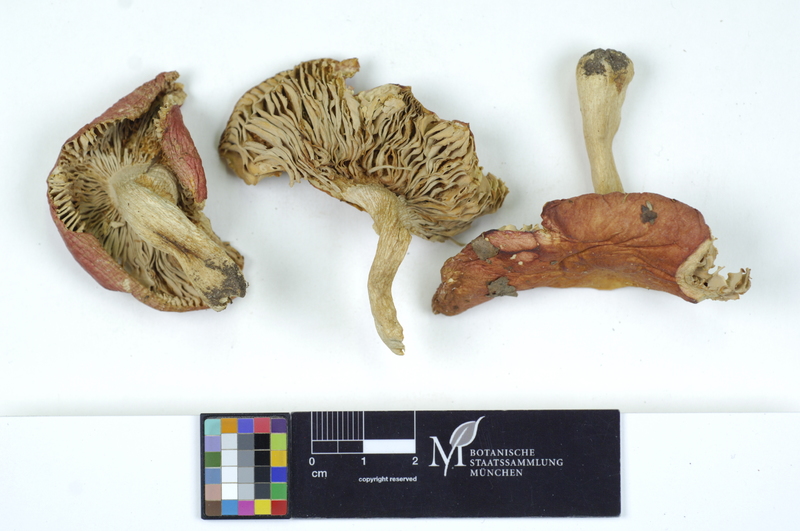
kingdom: Fungi
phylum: Basidiomycota
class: Agaricomycetes
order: Russulales
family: Russulaceae
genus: Russula
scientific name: Russula borealis
